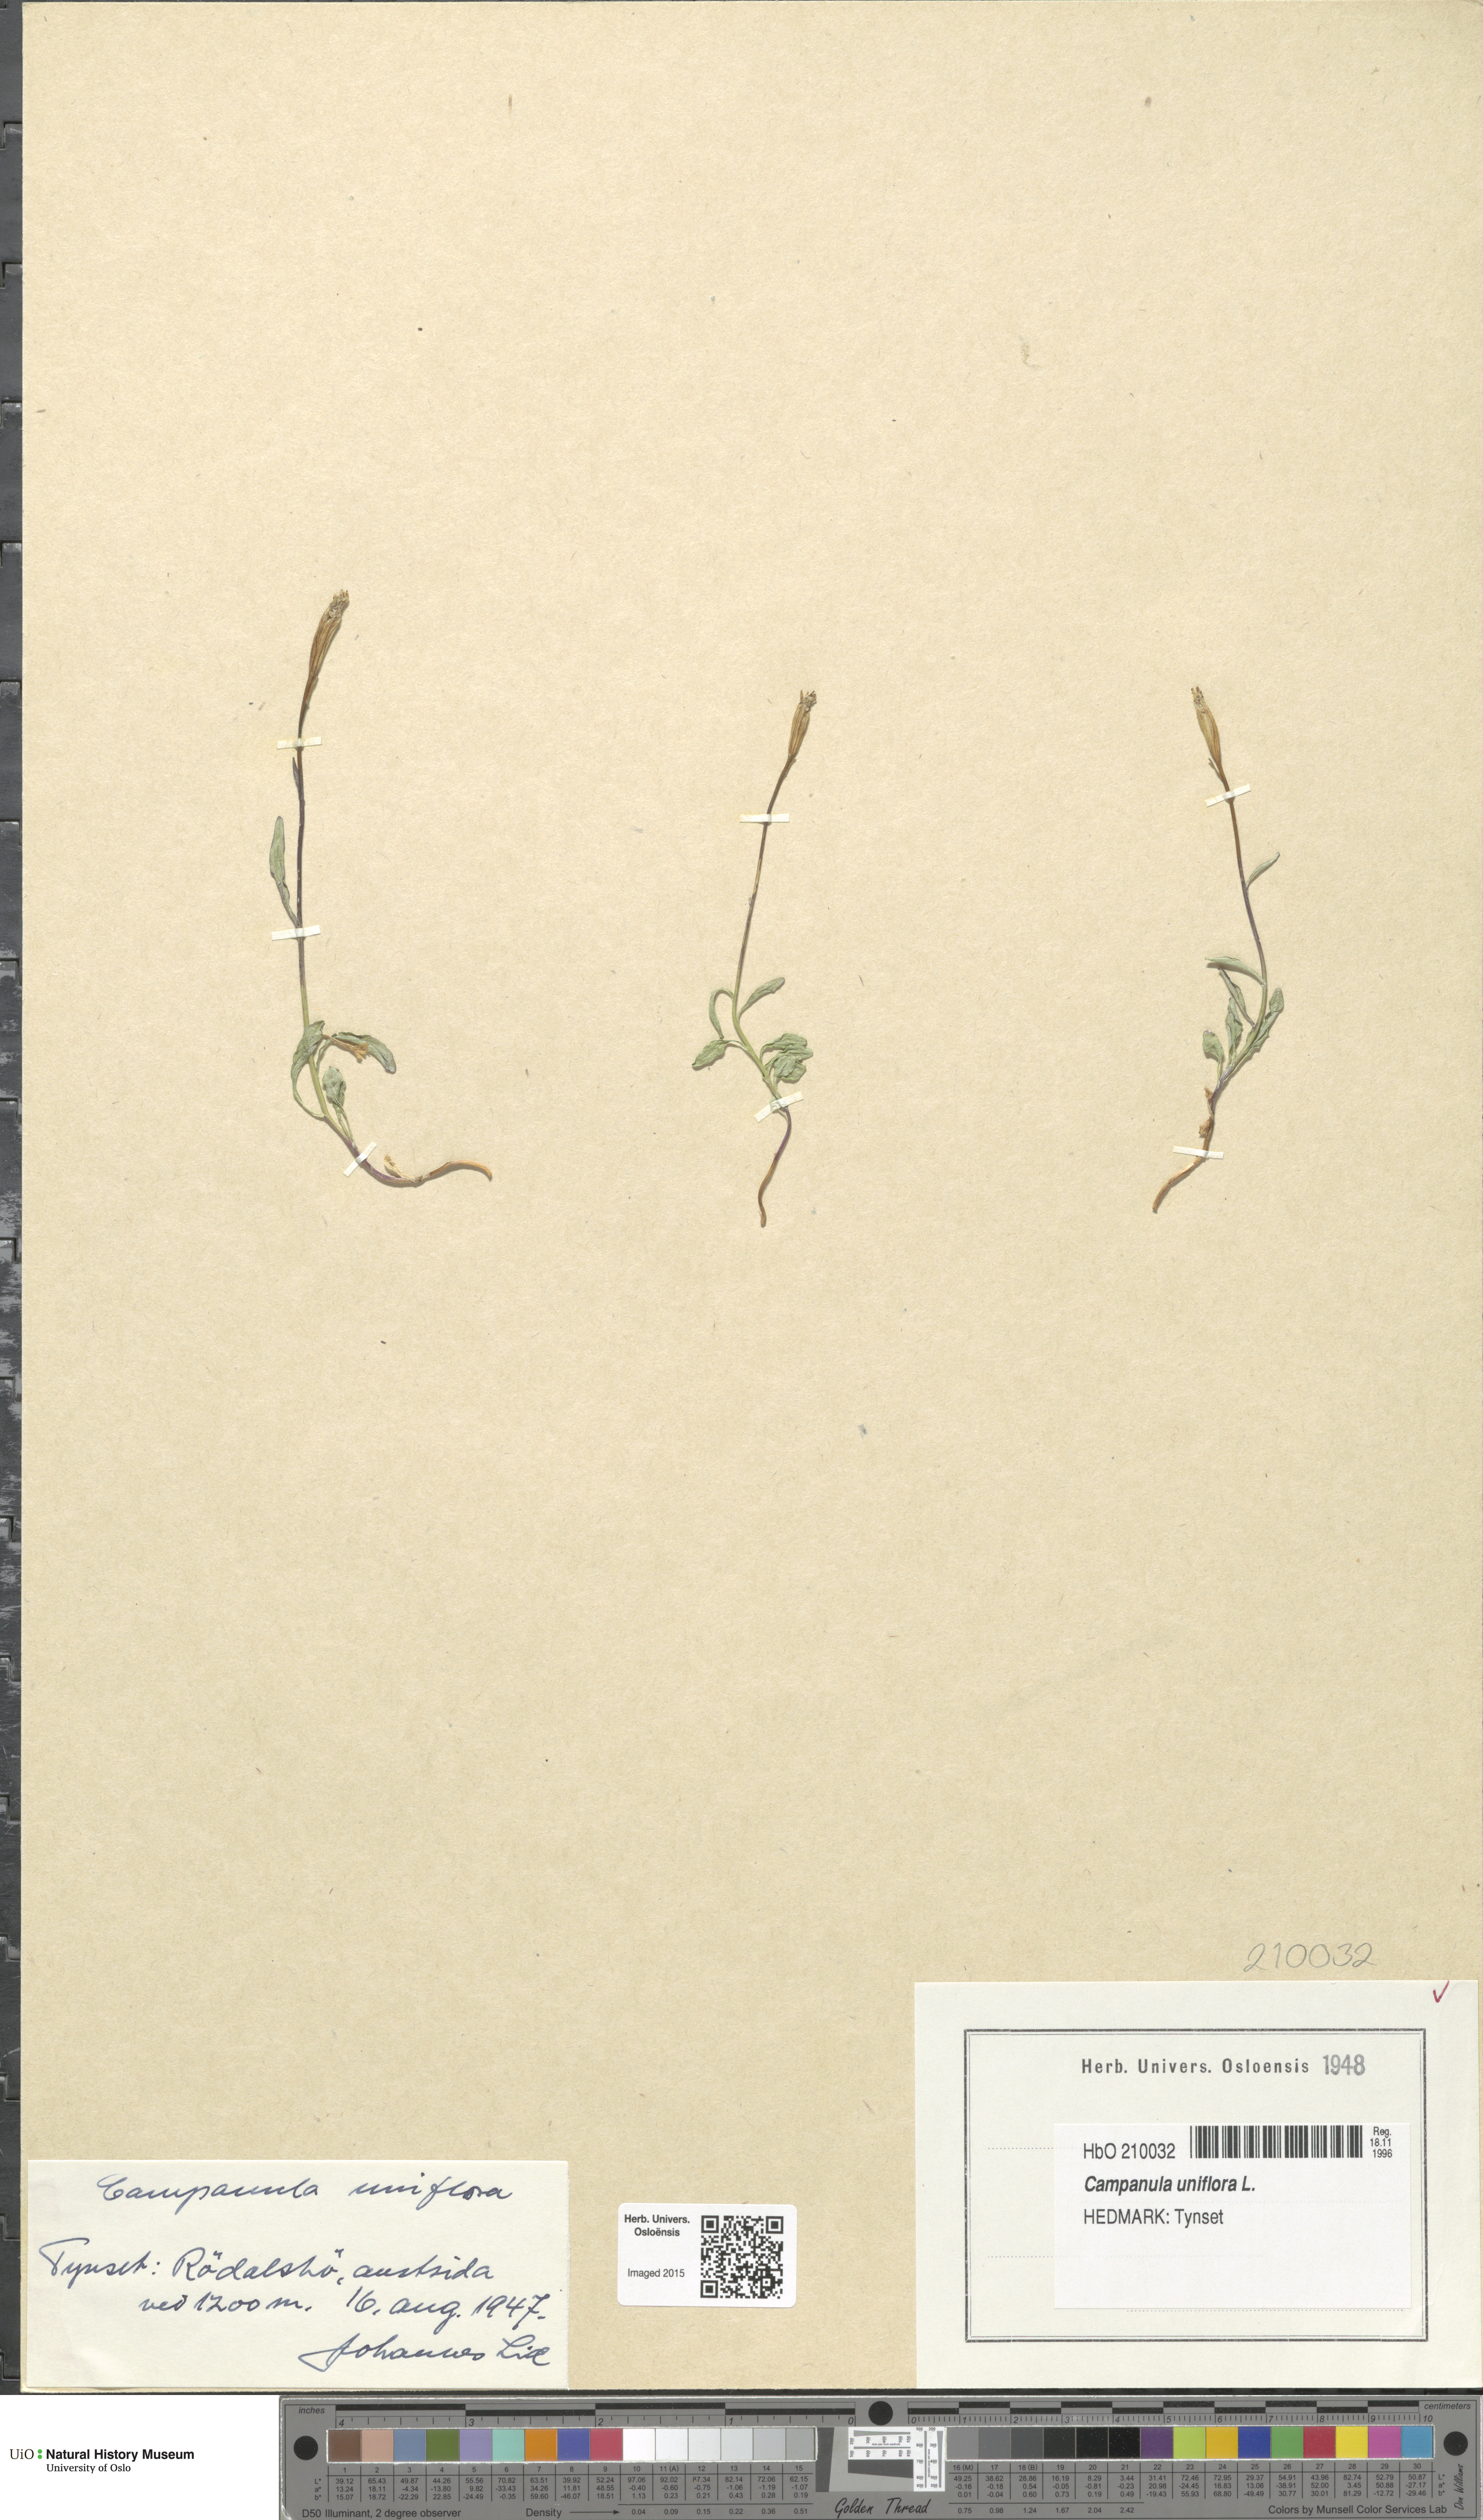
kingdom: Plantae
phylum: Tracheophyta
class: Magnoliopsida
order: Asterales
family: Campanulaceae
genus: Melanocalyx
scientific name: Melanocalyx uniflora
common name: Alpine harebell
